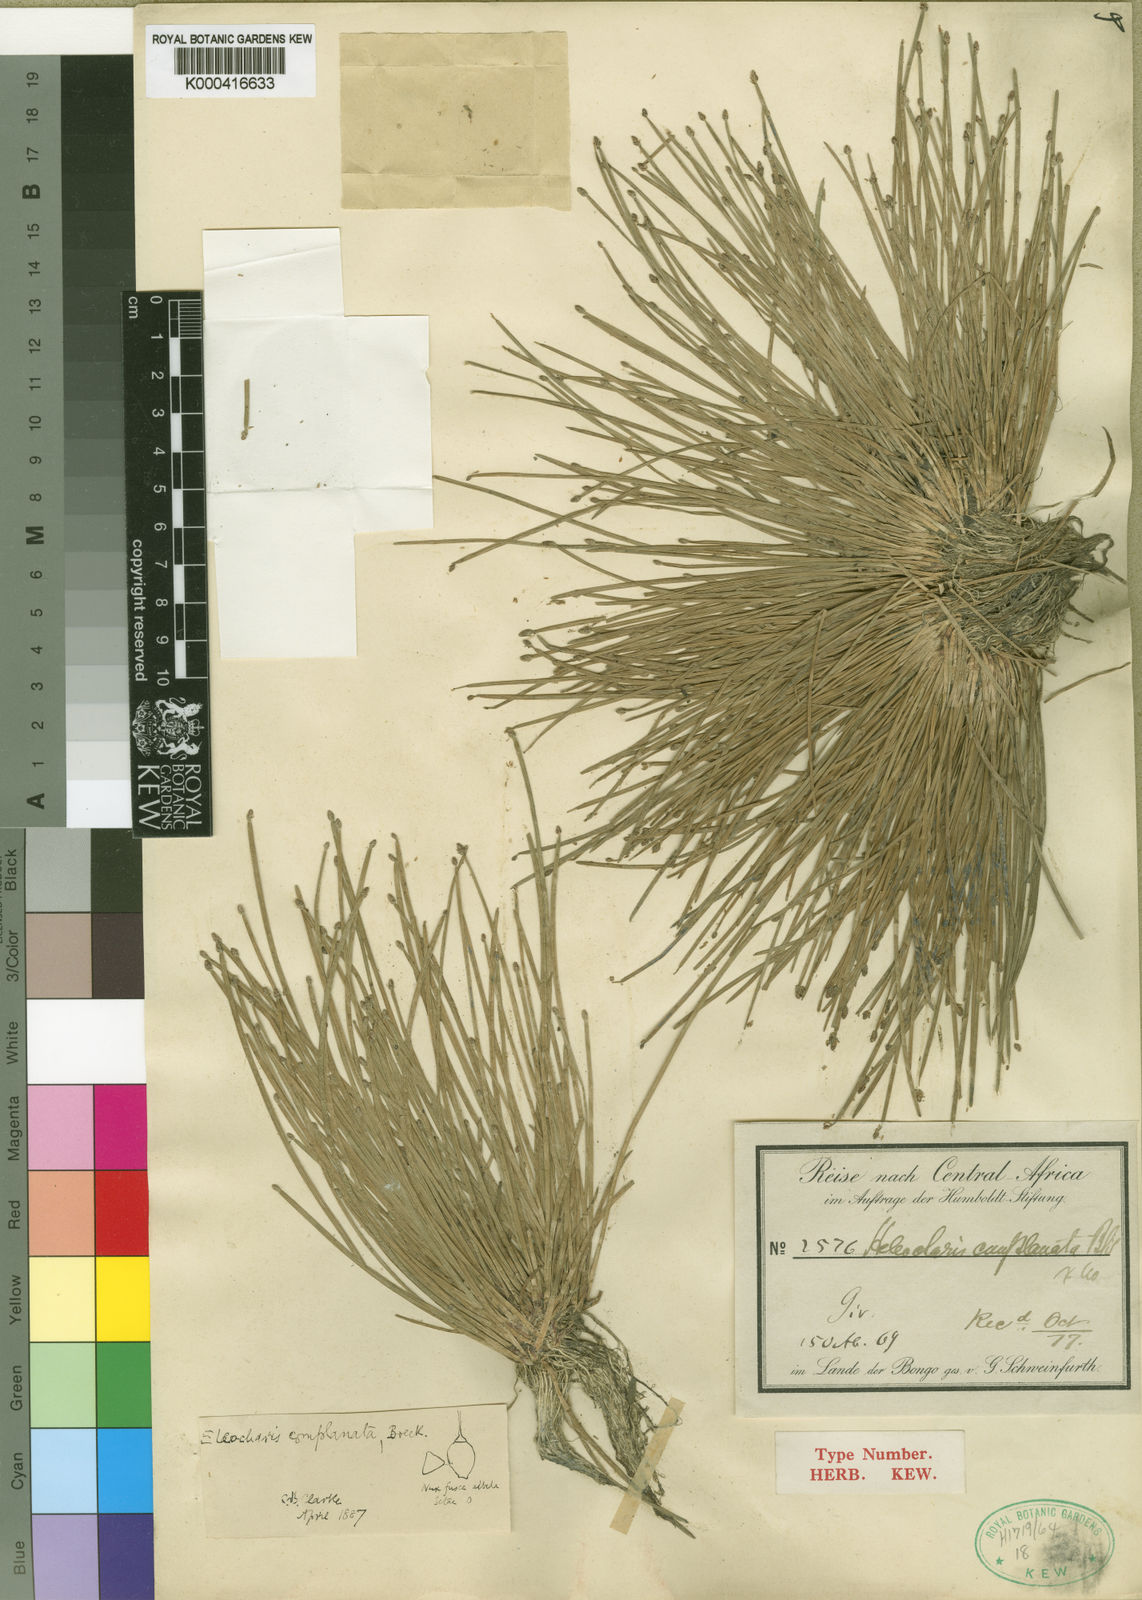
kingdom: Plantae
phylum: Tracheophyta
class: Liliopsida
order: Poales
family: Cyperaceae
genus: Eleocharis
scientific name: Eleocharis
